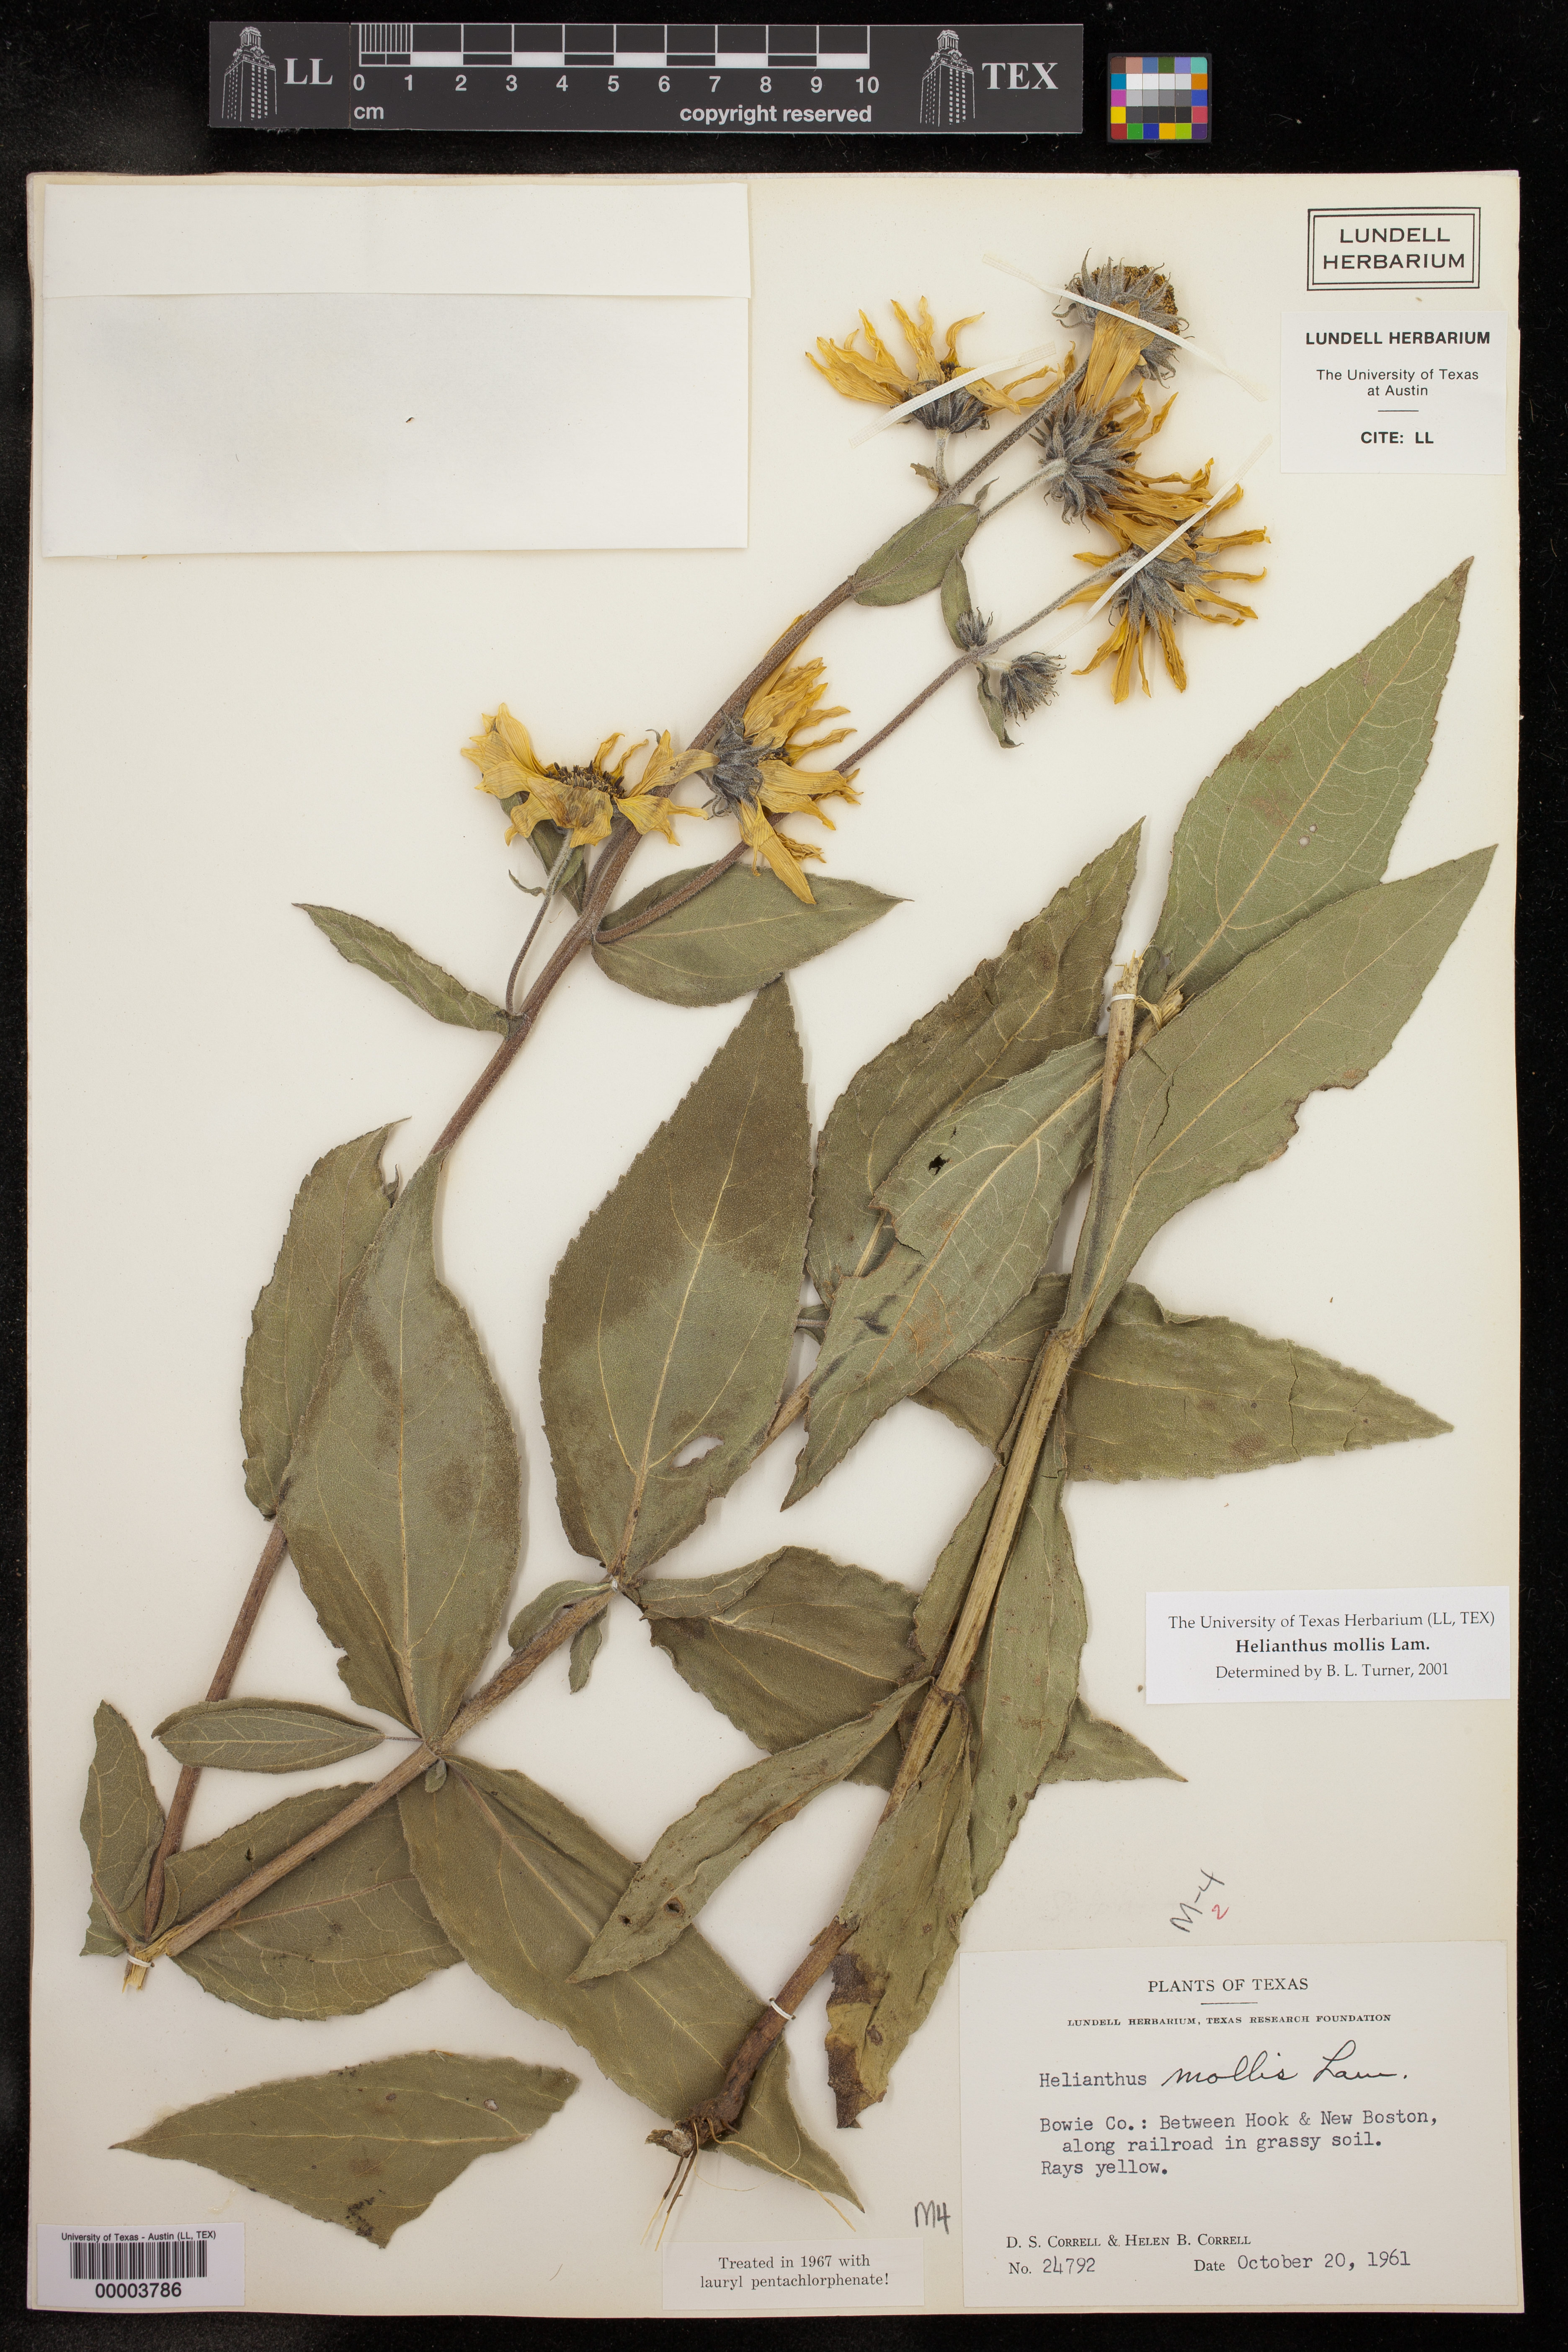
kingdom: Plantae
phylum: Tracheophyta
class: Magnoliopsida
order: Asterales
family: Asteraceae
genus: Helianthus
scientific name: Helianthus mollis
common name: Ashy sunflower
